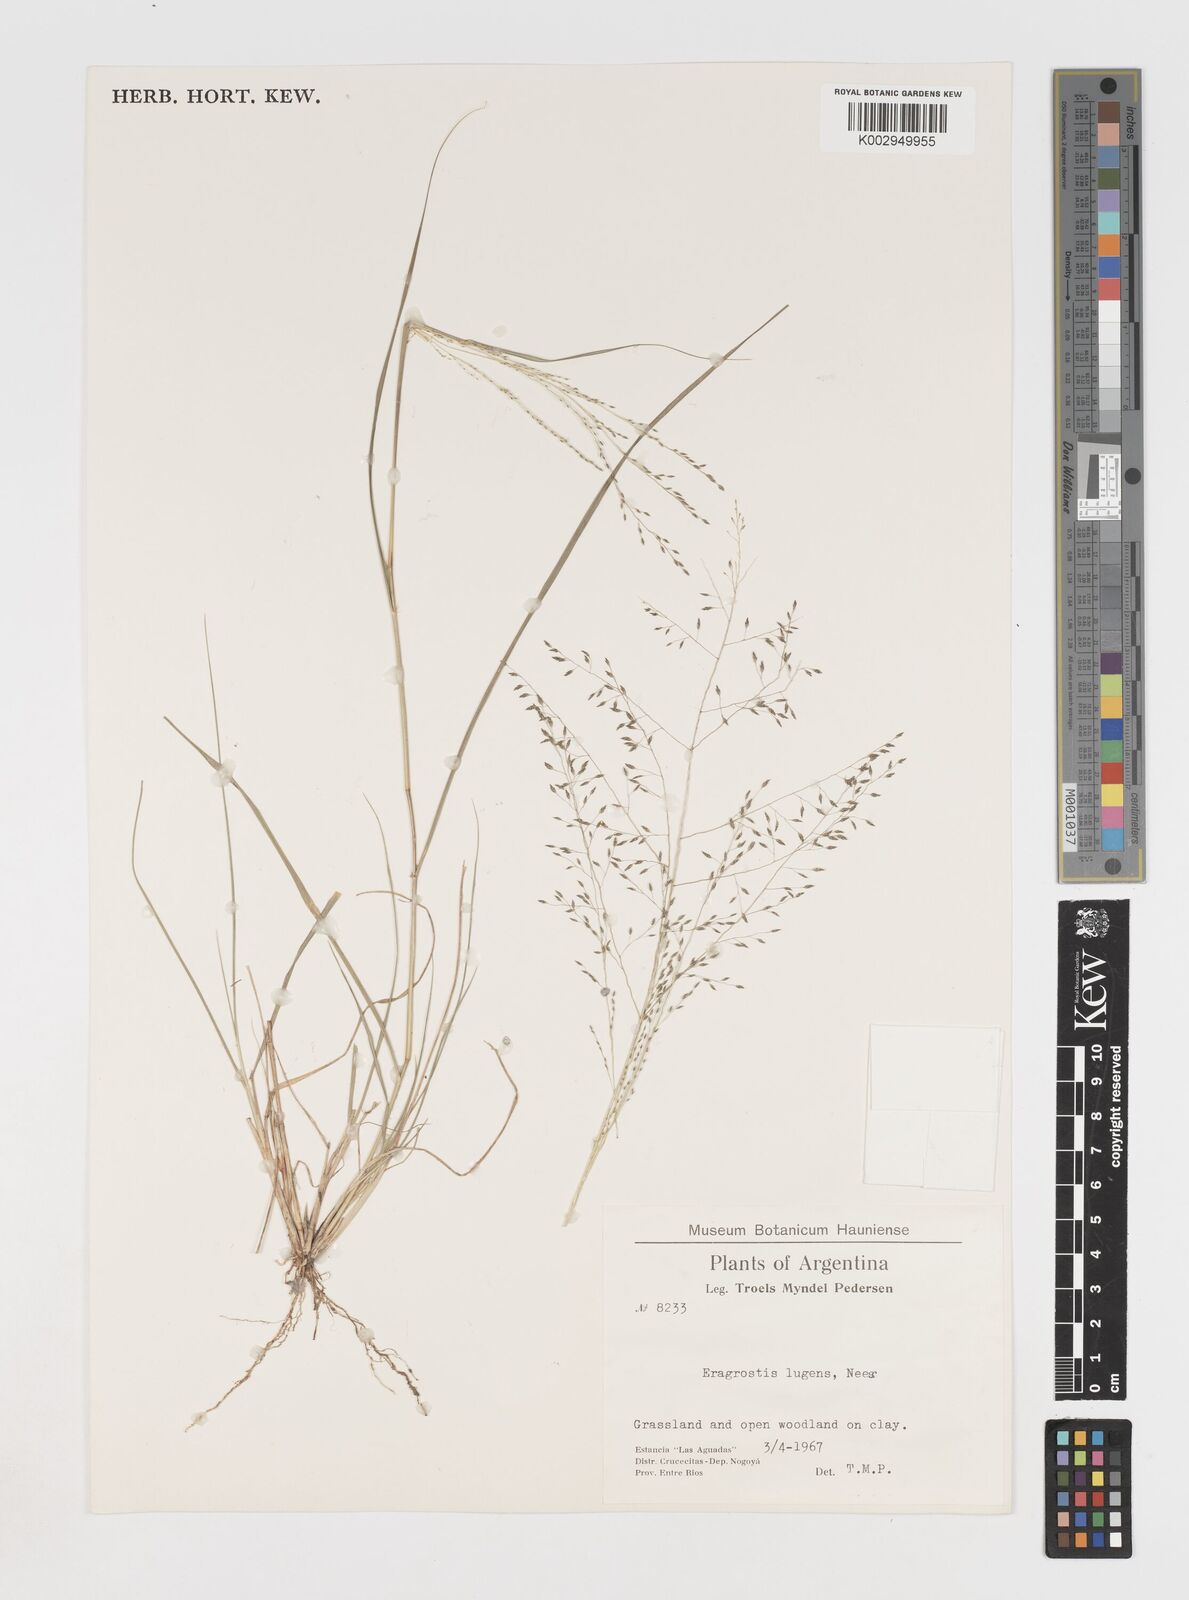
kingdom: Plantae
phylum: Tracheophyta
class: Liliopsida
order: Poales
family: Poaceae
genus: Eragrostis
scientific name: Eragrostis
